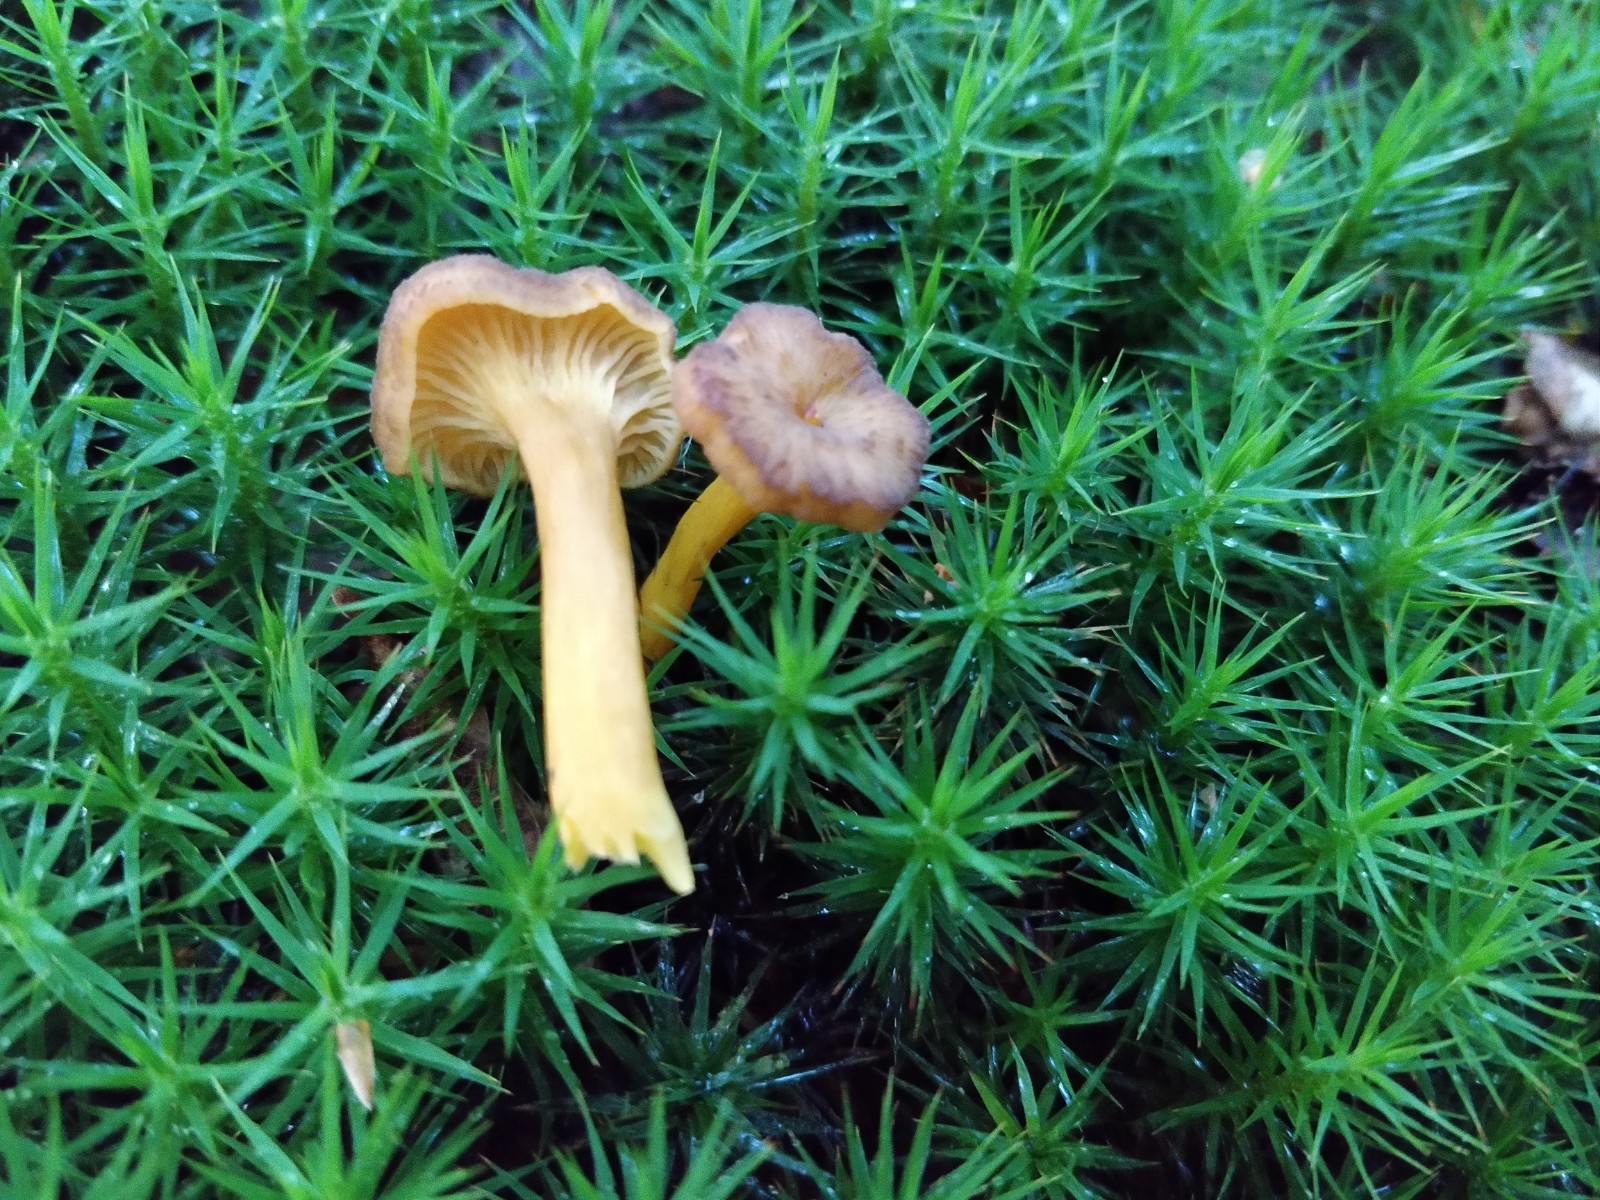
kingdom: Fungi
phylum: Basidiomycota
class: Agaricomycetes
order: Cantharellales
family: Hydnaceae
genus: Craterellus
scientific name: Craterellus tubaeformis
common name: tragt-kantarel
